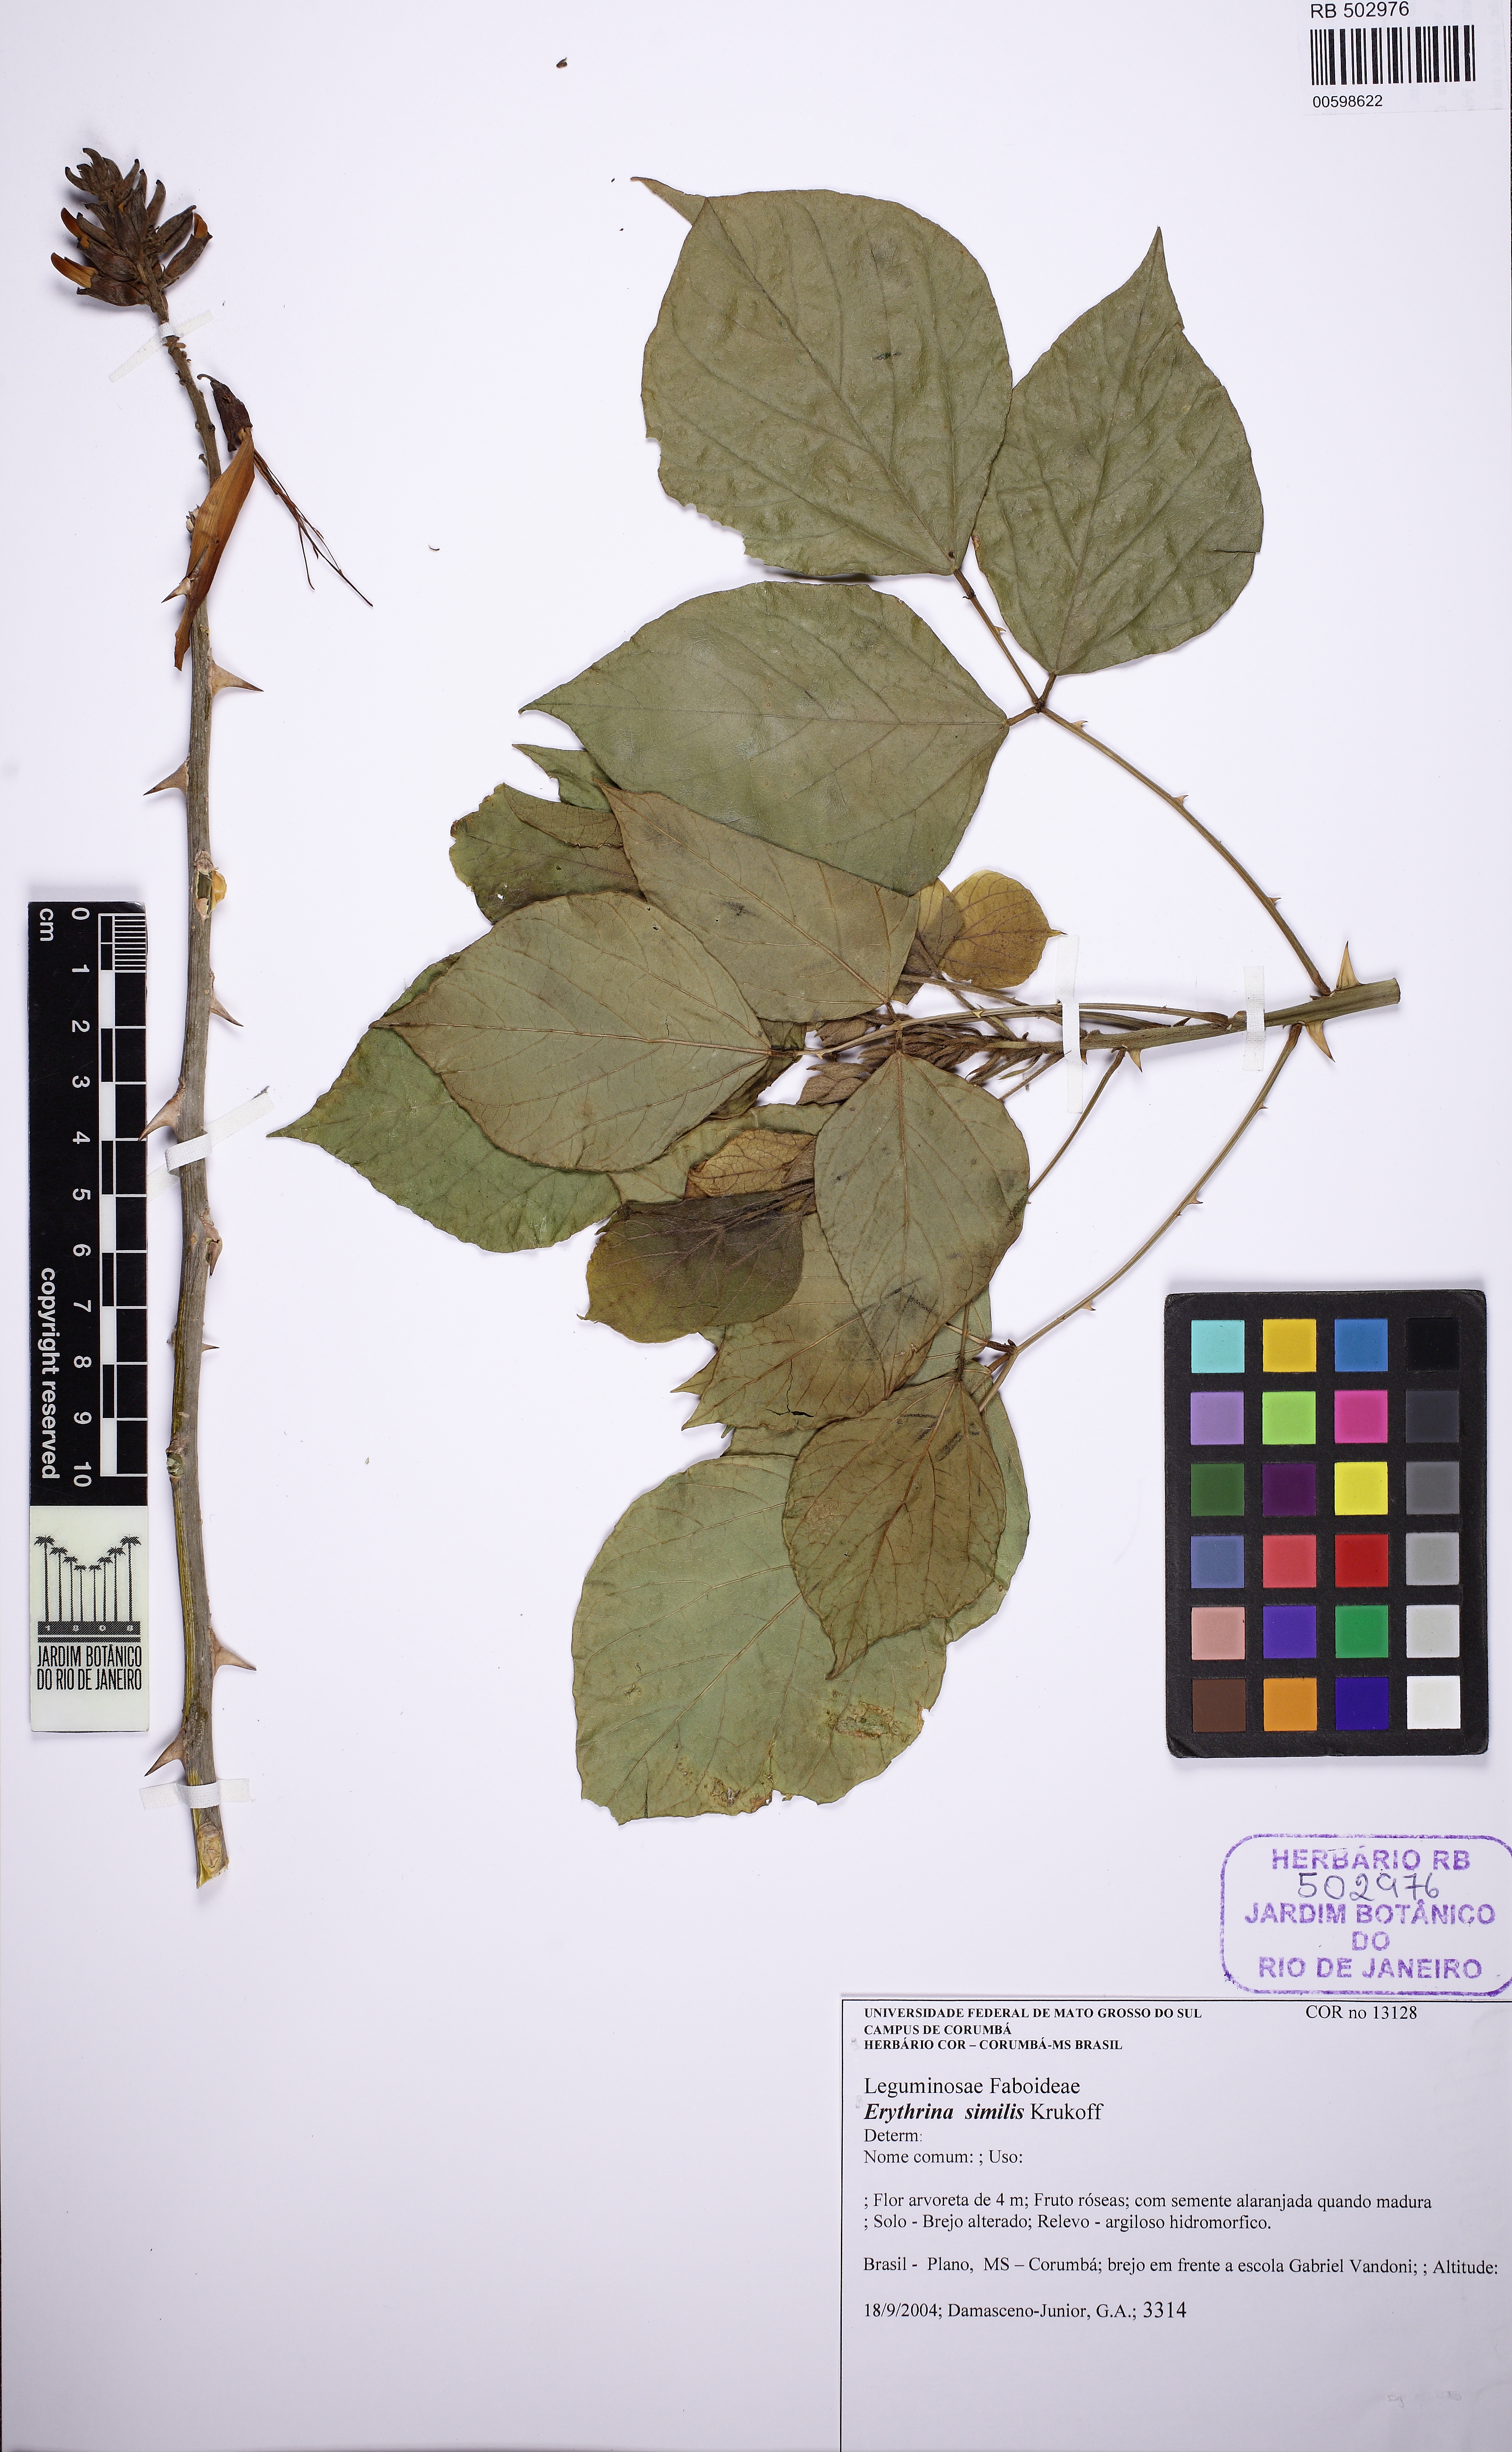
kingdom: Plantae
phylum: Tracheophyta
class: Magnoliopsida
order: Fabales
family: Fabaceae
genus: Erythrina
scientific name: Erythrina similis
